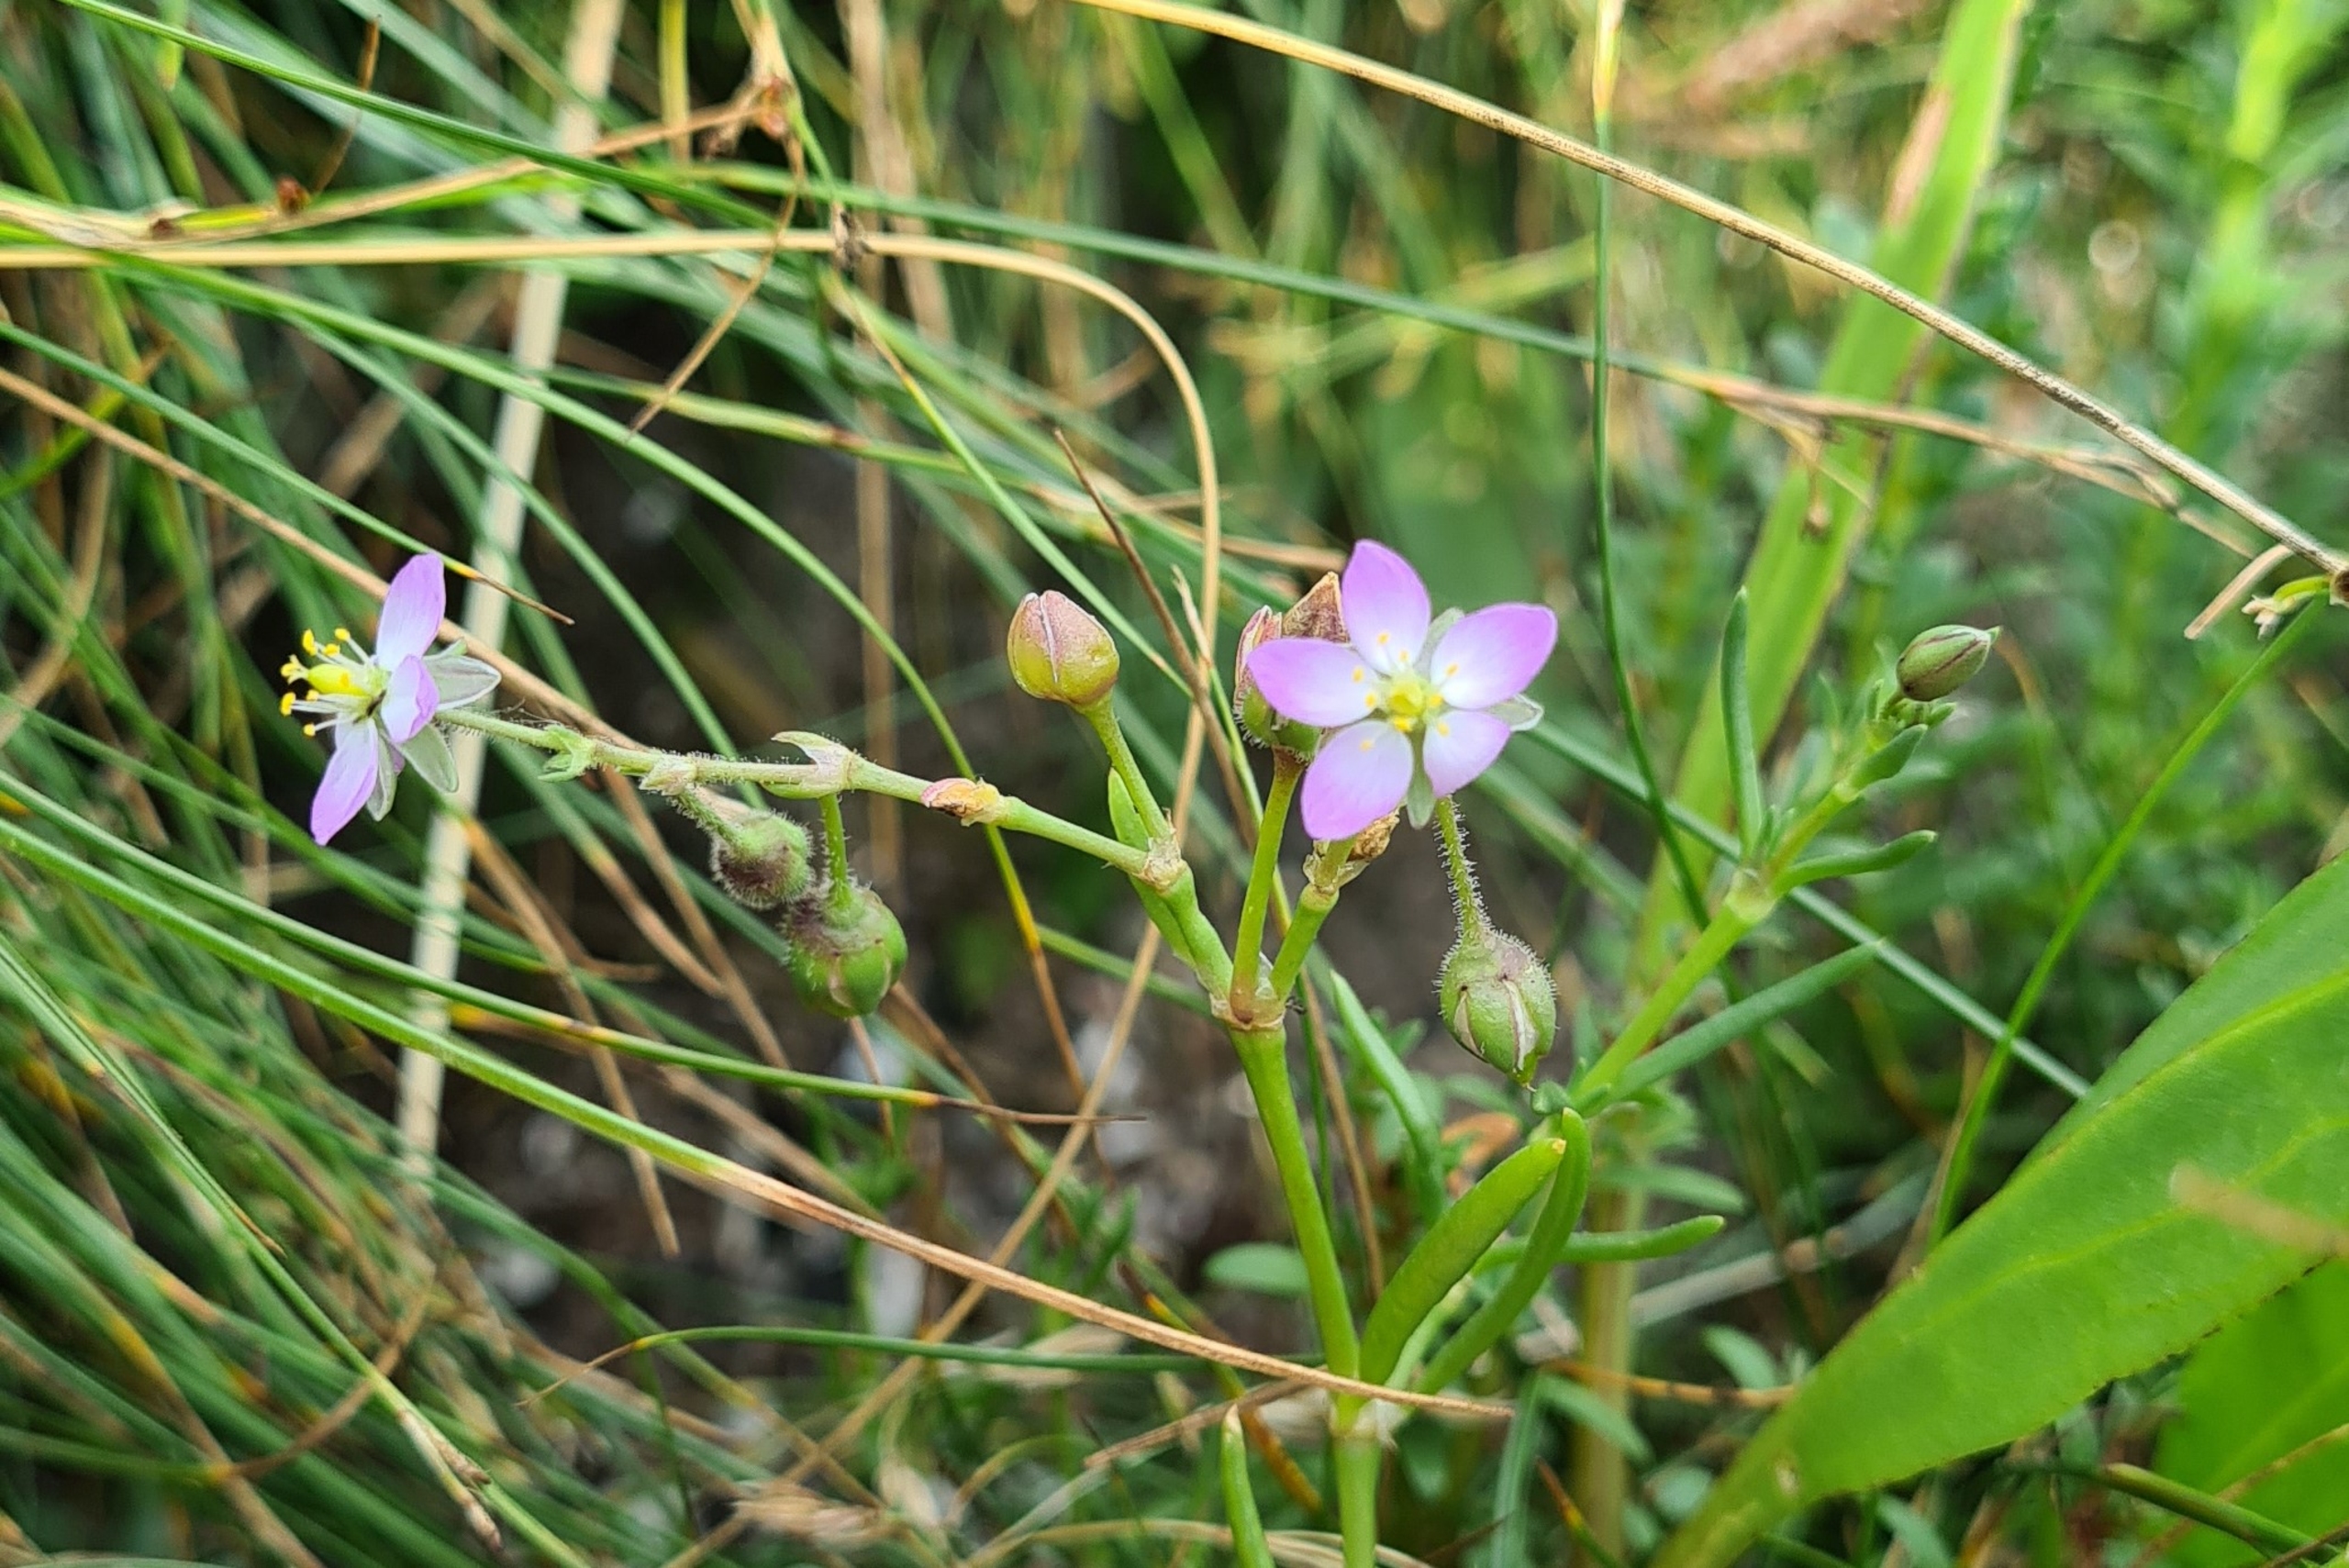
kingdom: Plantae
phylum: Tracheophyta
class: Magnoliopsida
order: Caryophyllales
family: Caryophyllaceae
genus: Spergularia
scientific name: Spergularia media
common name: Vingefrøet hindeknæ
